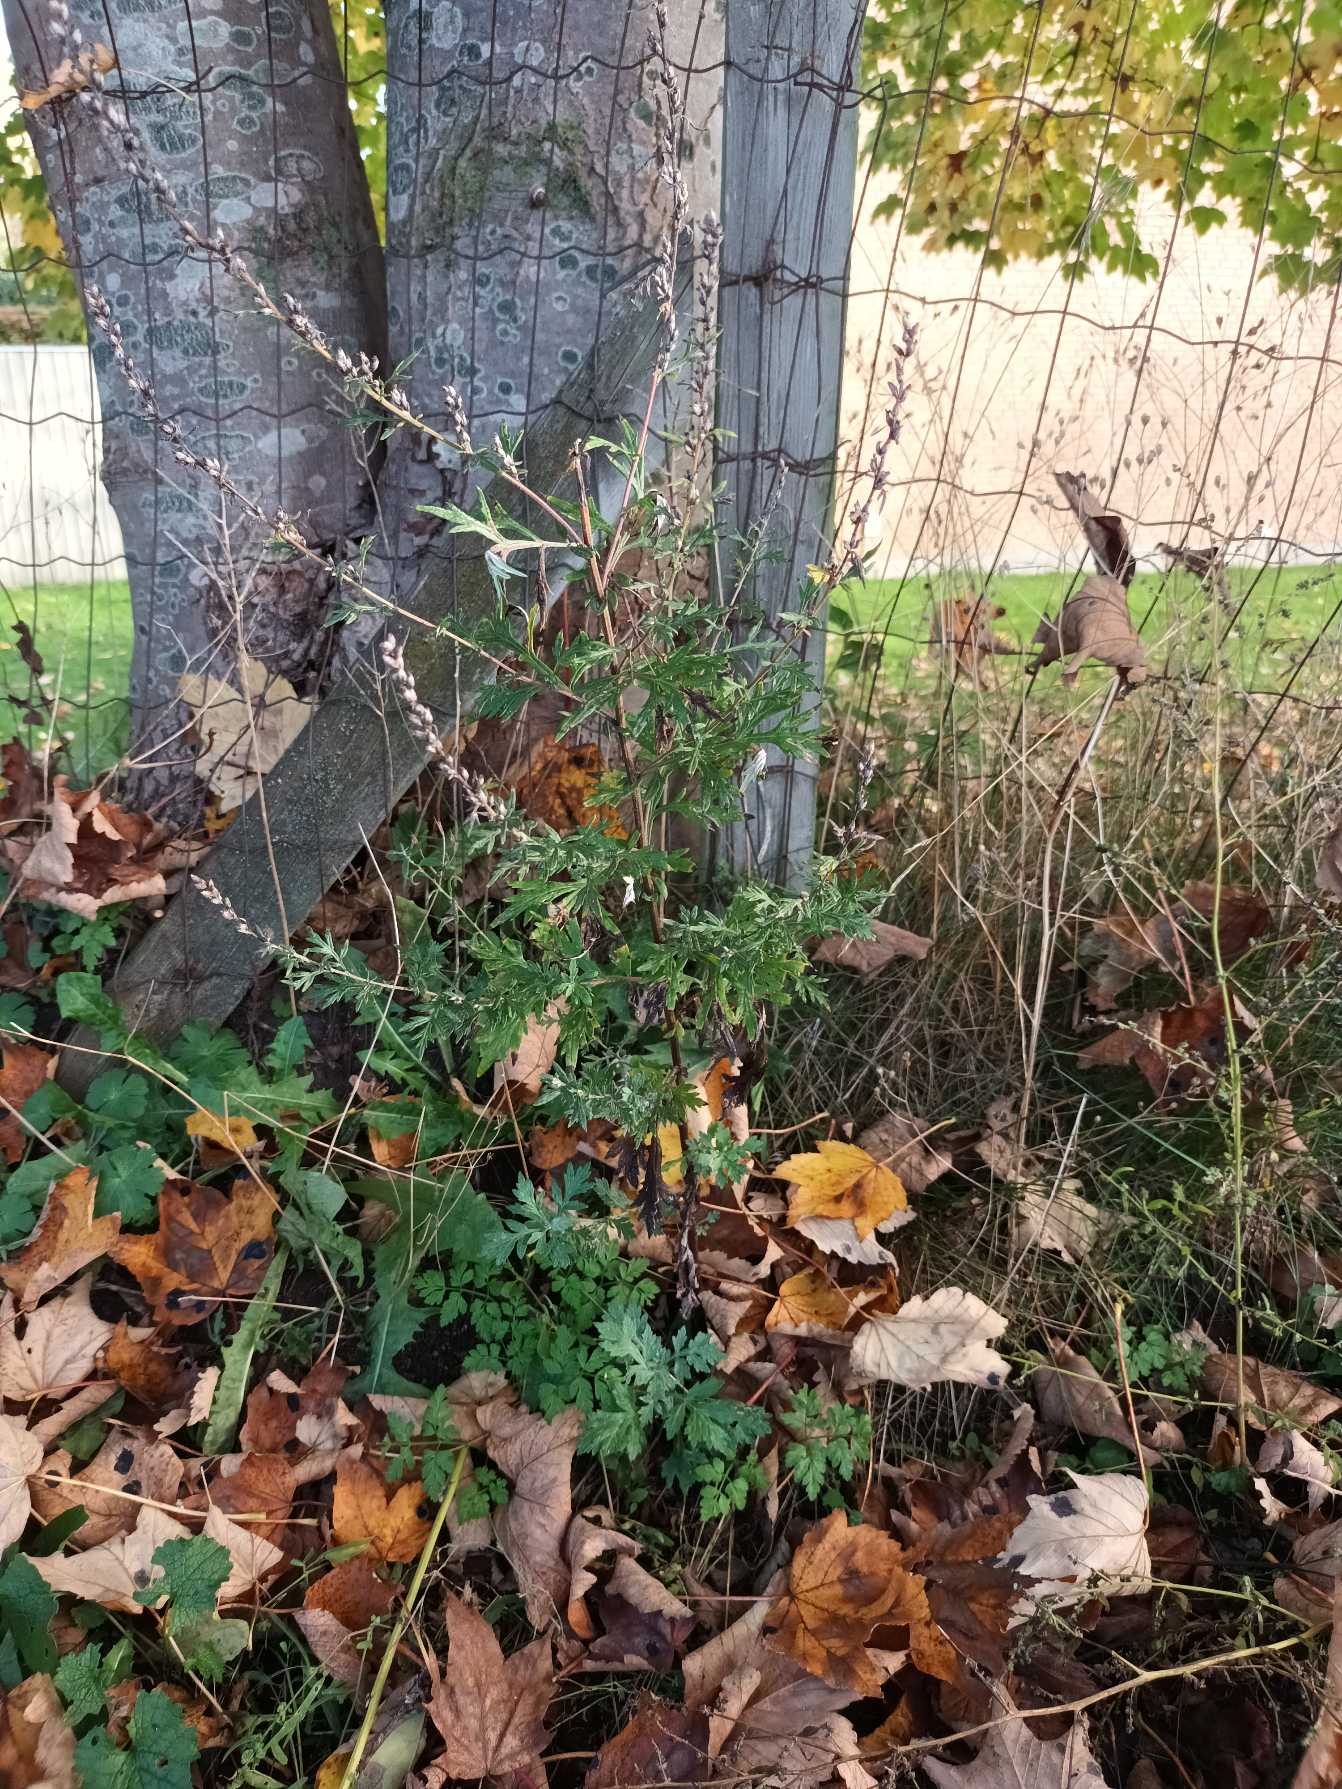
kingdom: Plantae
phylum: Tracheophyta
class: Magnoliopsida
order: Asterales
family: Asteraceae
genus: Artemisia
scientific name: Artemisia vulgaris
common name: Grå-bynke
